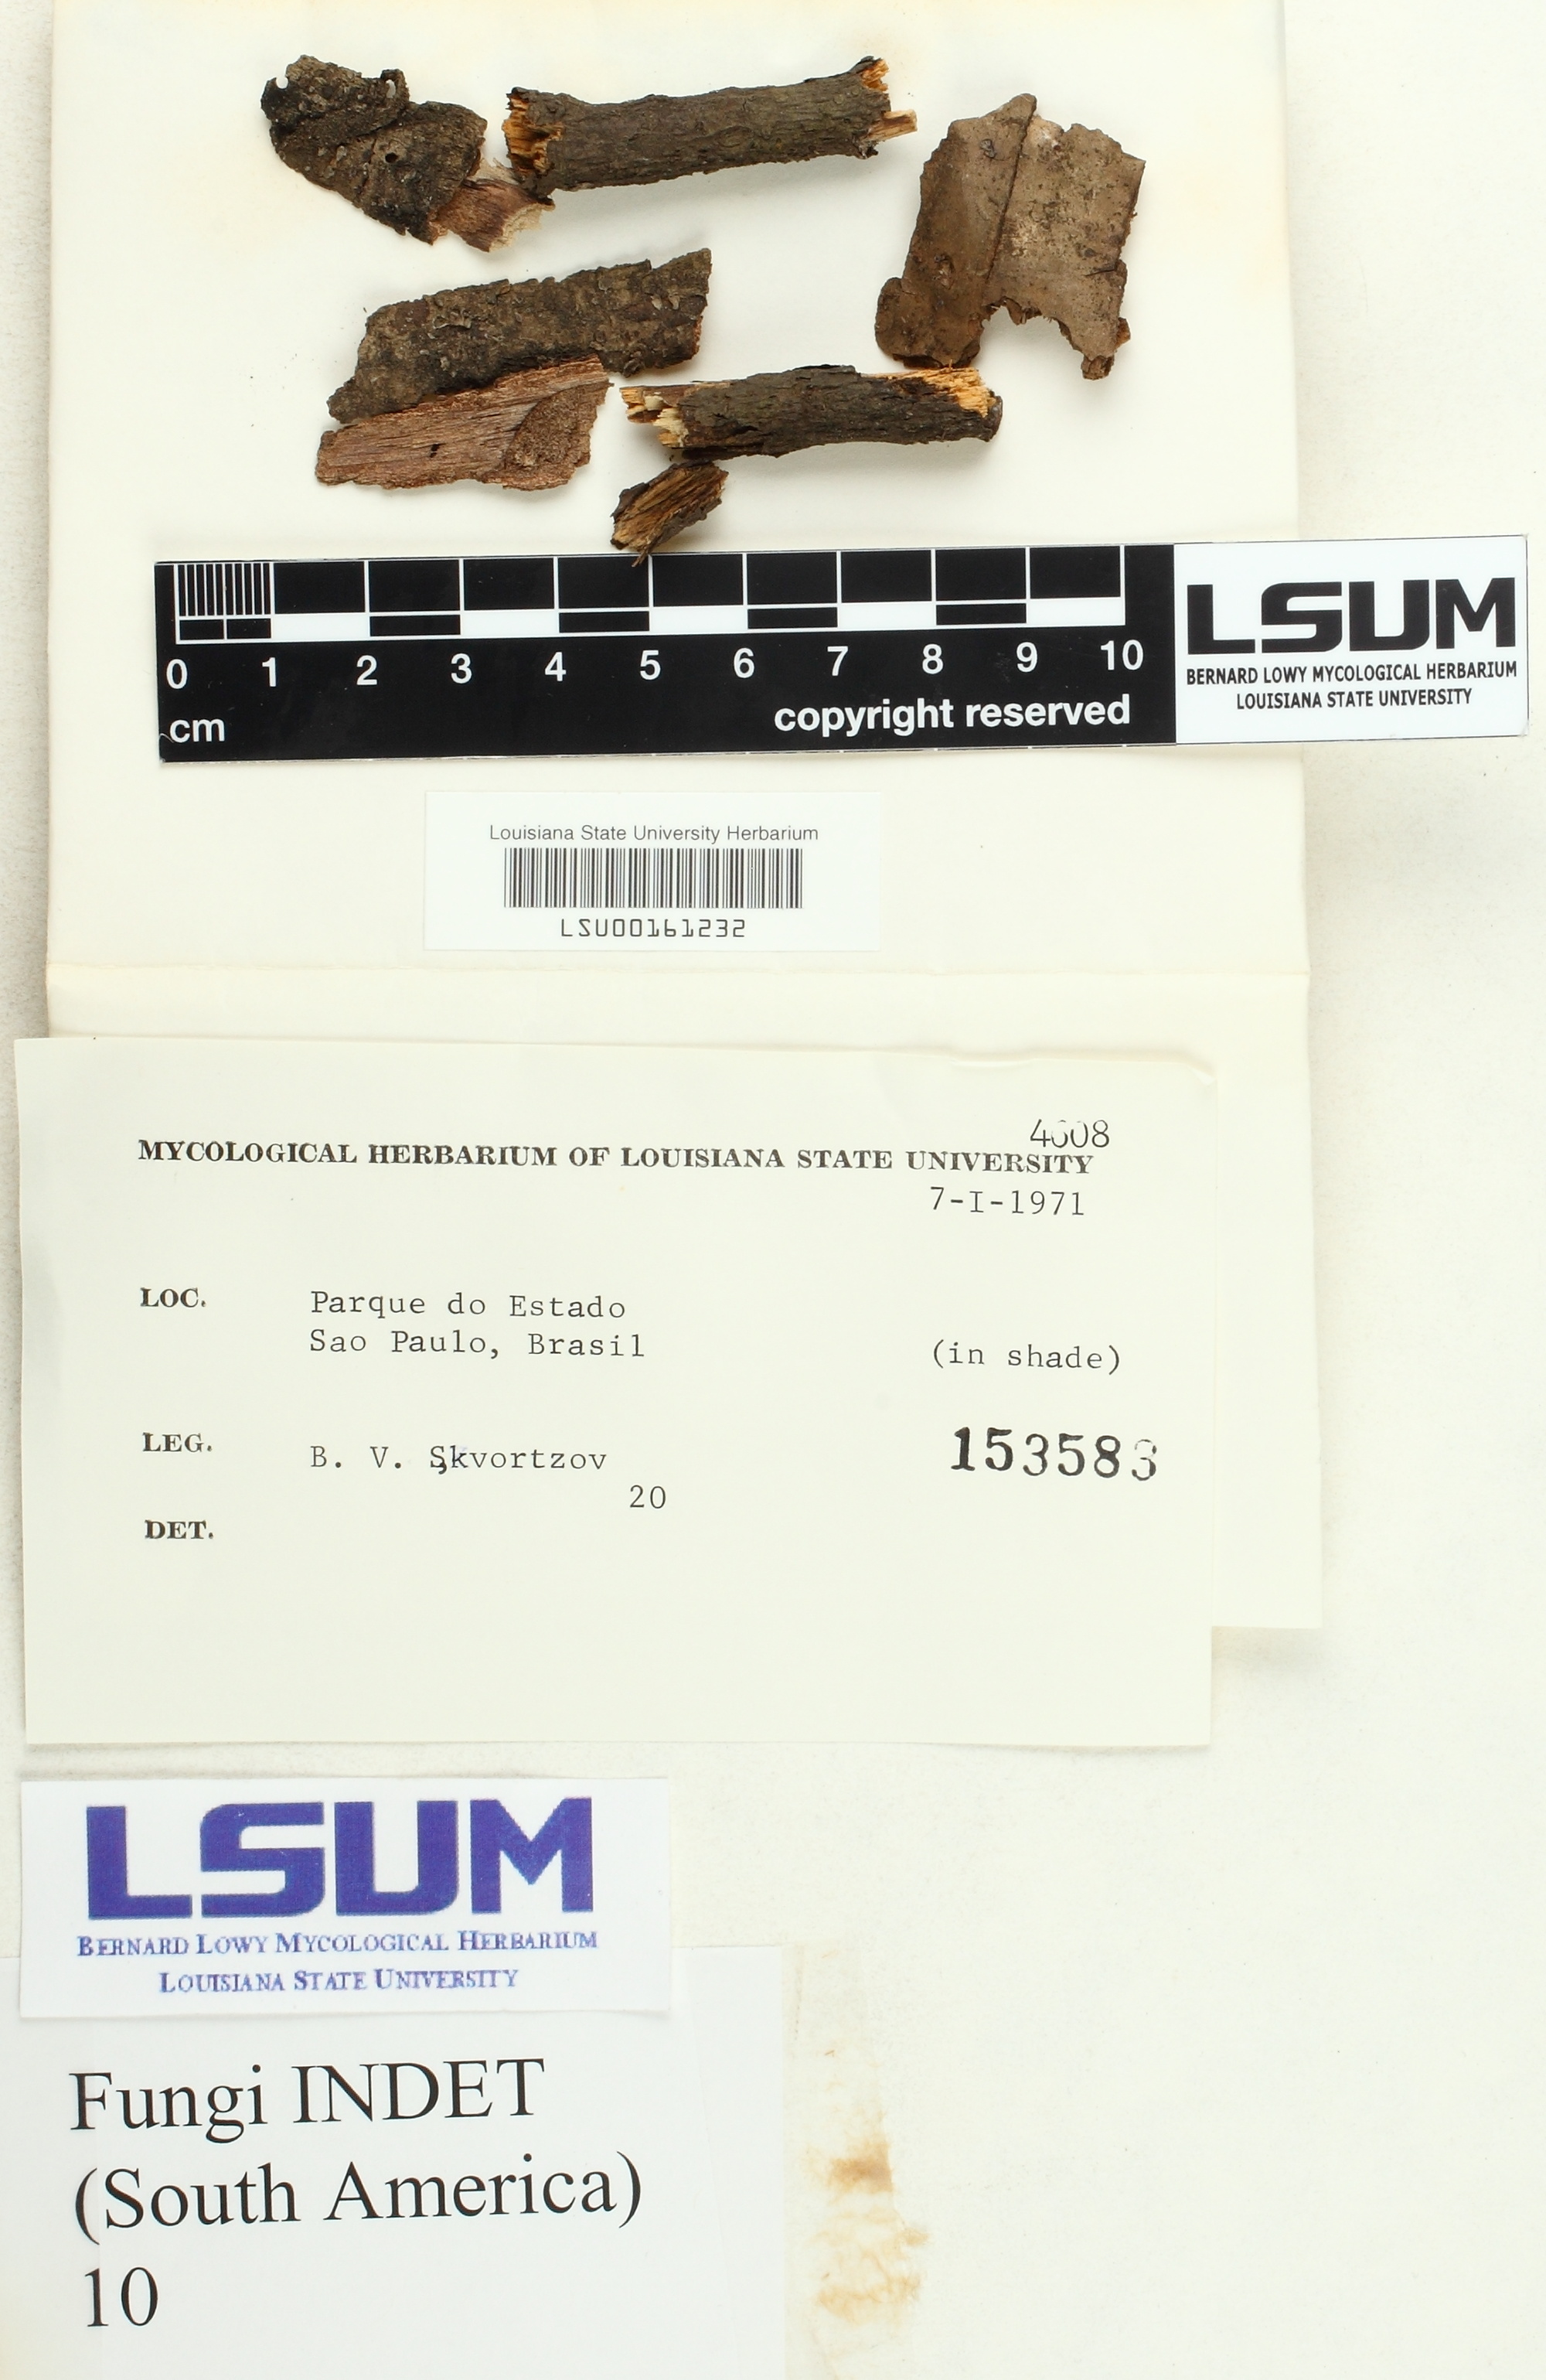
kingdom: Fungi
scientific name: Fungi
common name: Fungi
